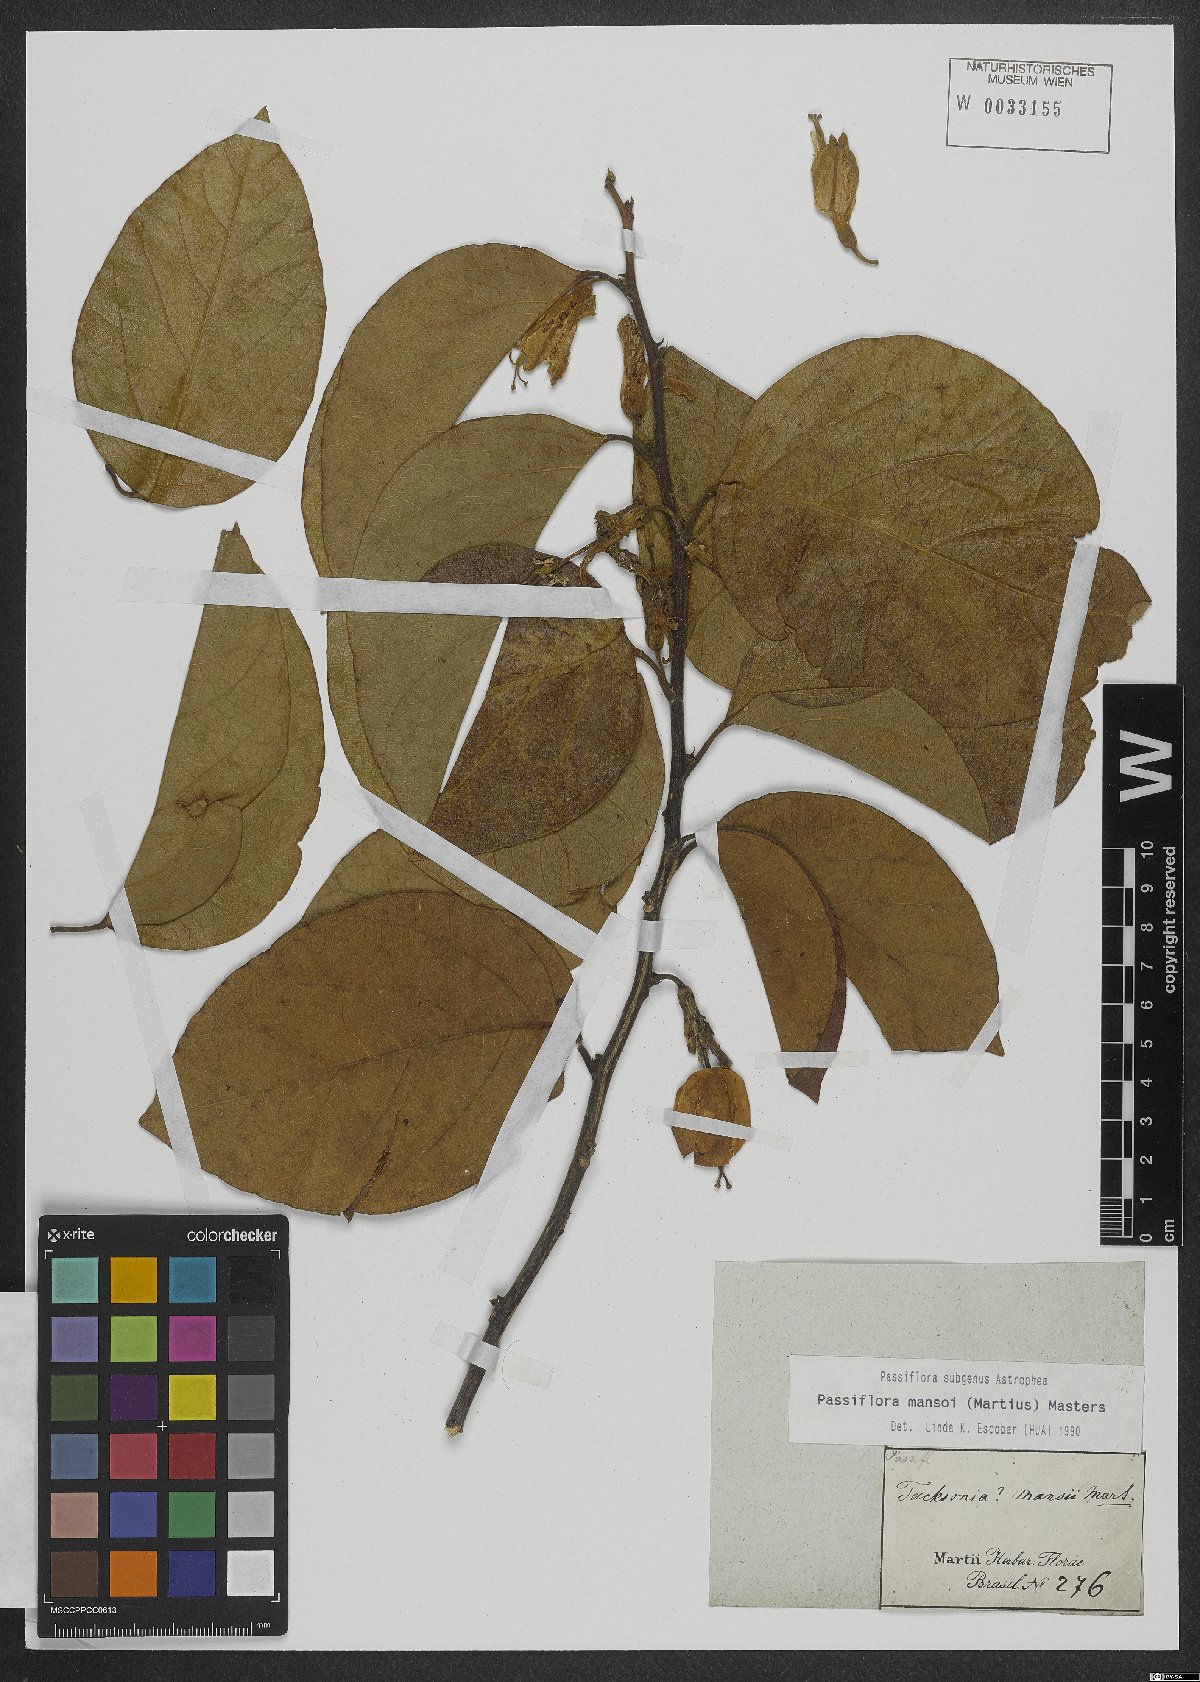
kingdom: Plantae
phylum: Tracheophyta
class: Magnoliopsida
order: Malpighiales
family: Passifloraceae
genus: Passiflora
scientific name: Passiflora mansoi
